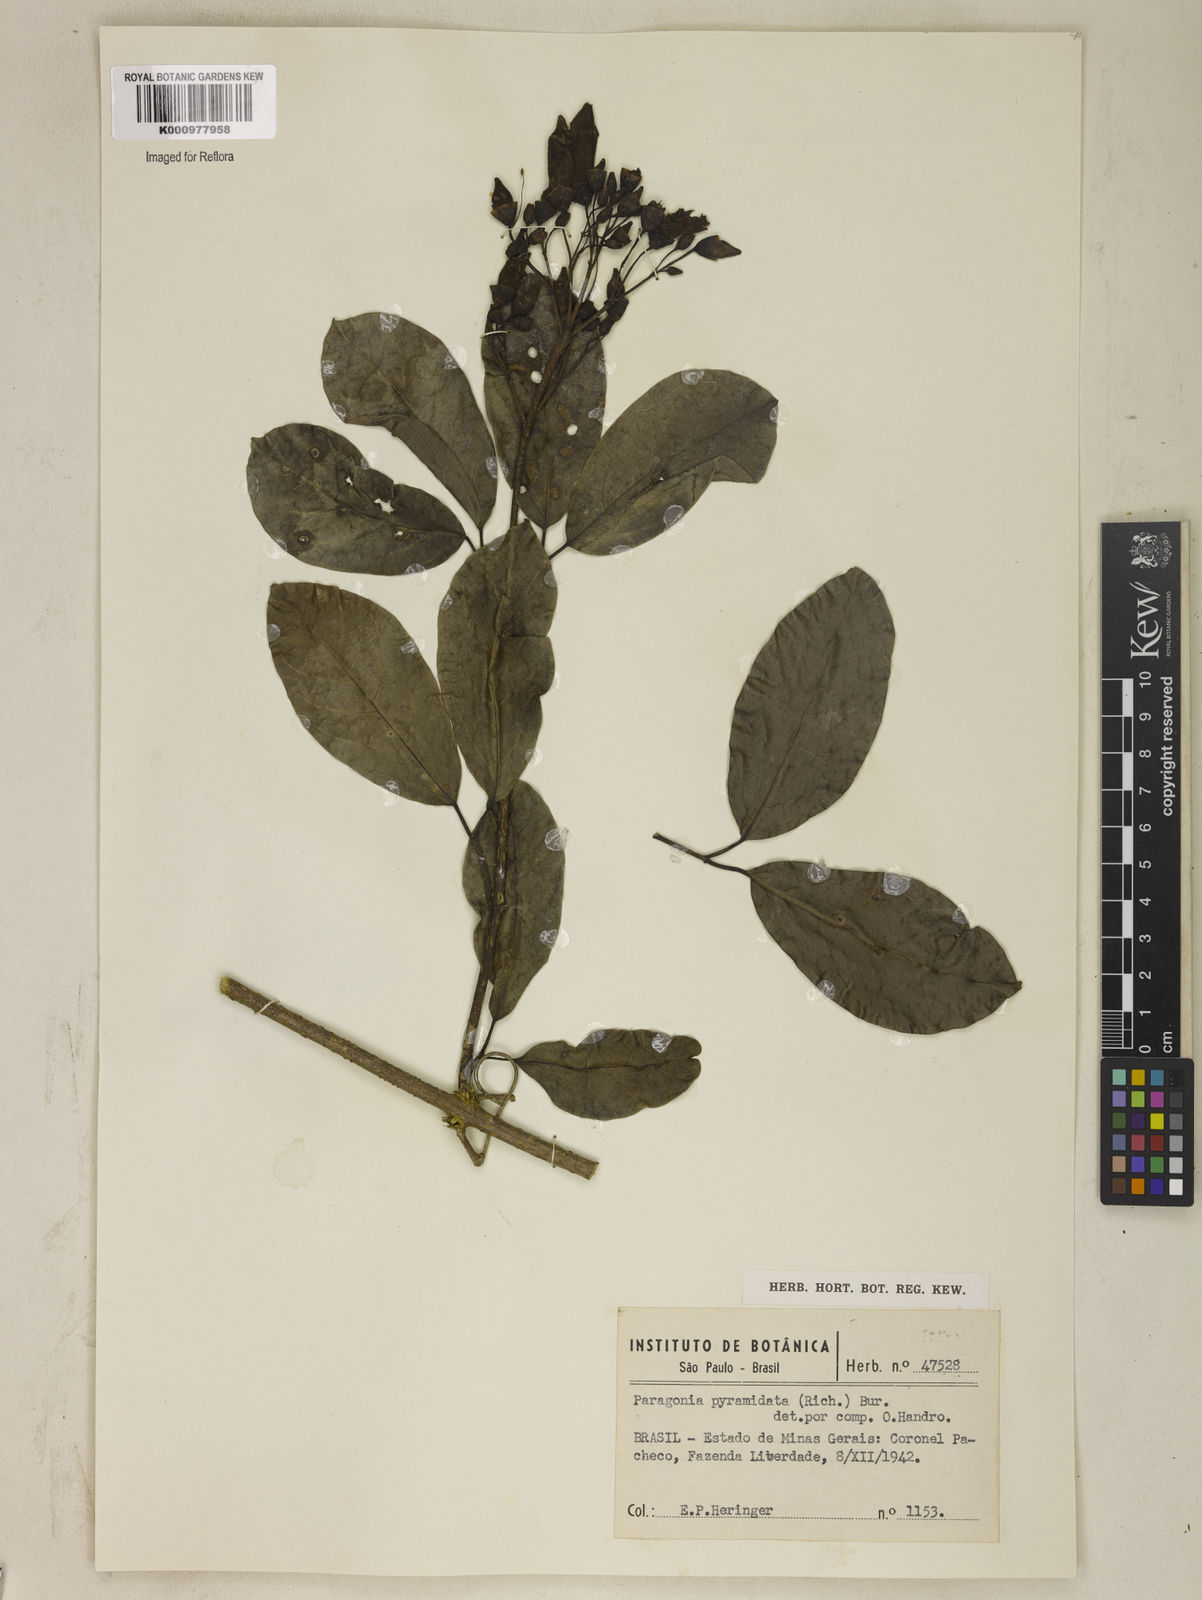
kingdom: Plantae
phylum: Tracheophyta
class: Magnoliopsida
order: Lamiales
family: Bignoniaceae
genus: Tanaecium
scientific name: Tanaecium pyramidatum
